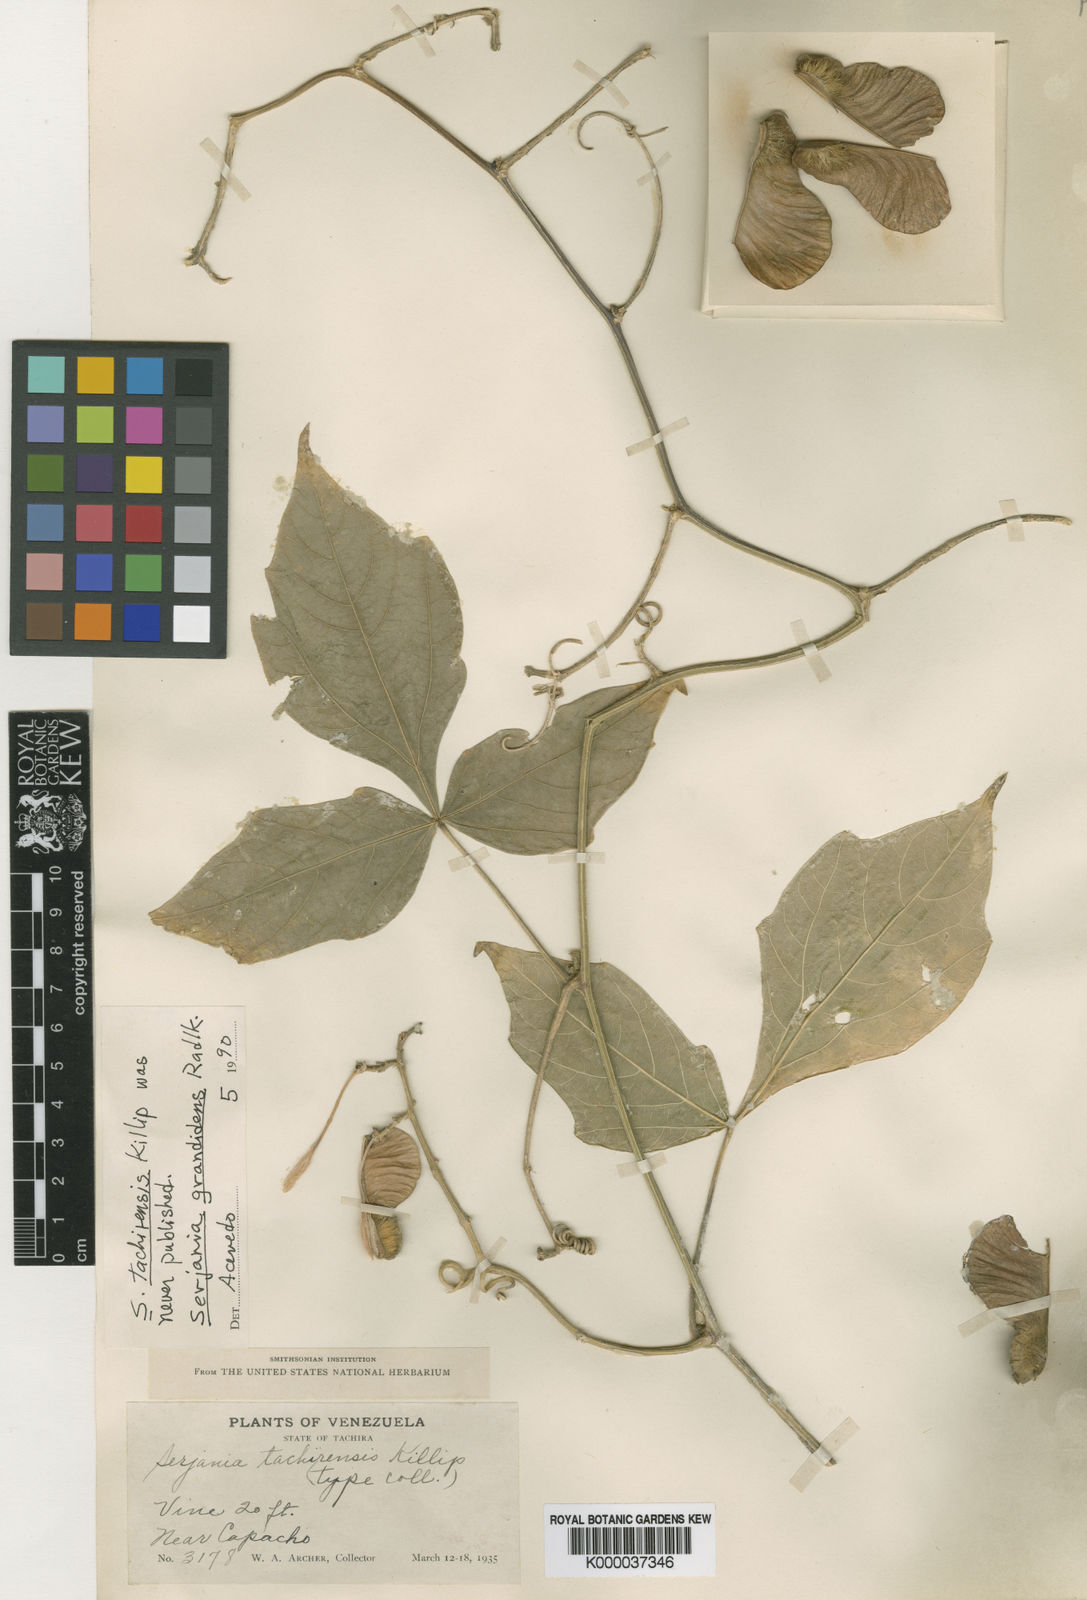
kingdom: Plantae
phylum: Tracheophyta
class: Magnoliopsida
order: Sapindales
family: Sapindaceae
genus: Serjania
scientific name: Serjania grandidens
